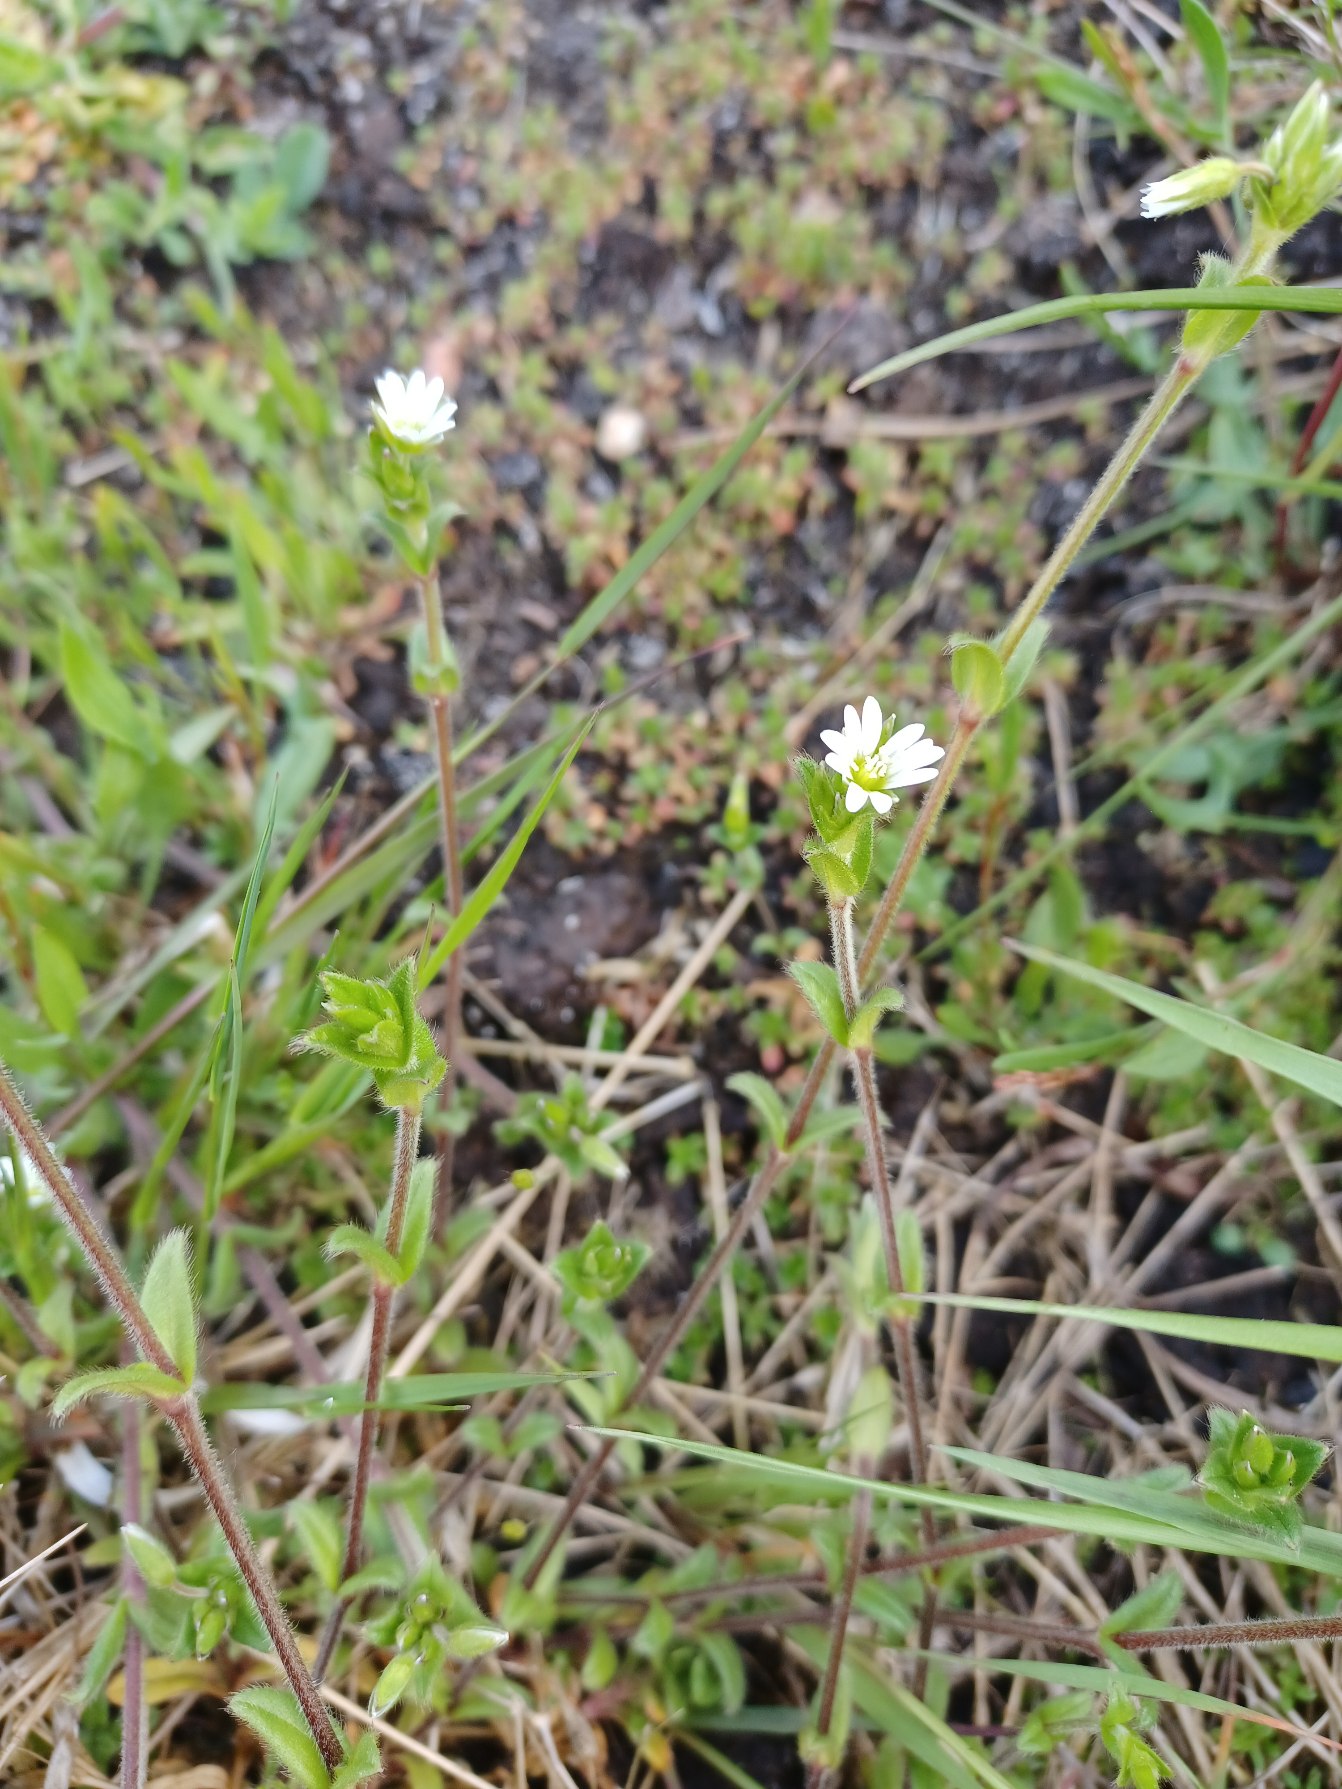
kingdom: Plantae
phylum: Tracheophyta
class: Magnoliopsida
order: Caryophyllales
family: Caryophyllaceae
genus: Cerastium
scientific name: Cerastium fontanum
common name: Almindelig hønsetarm
